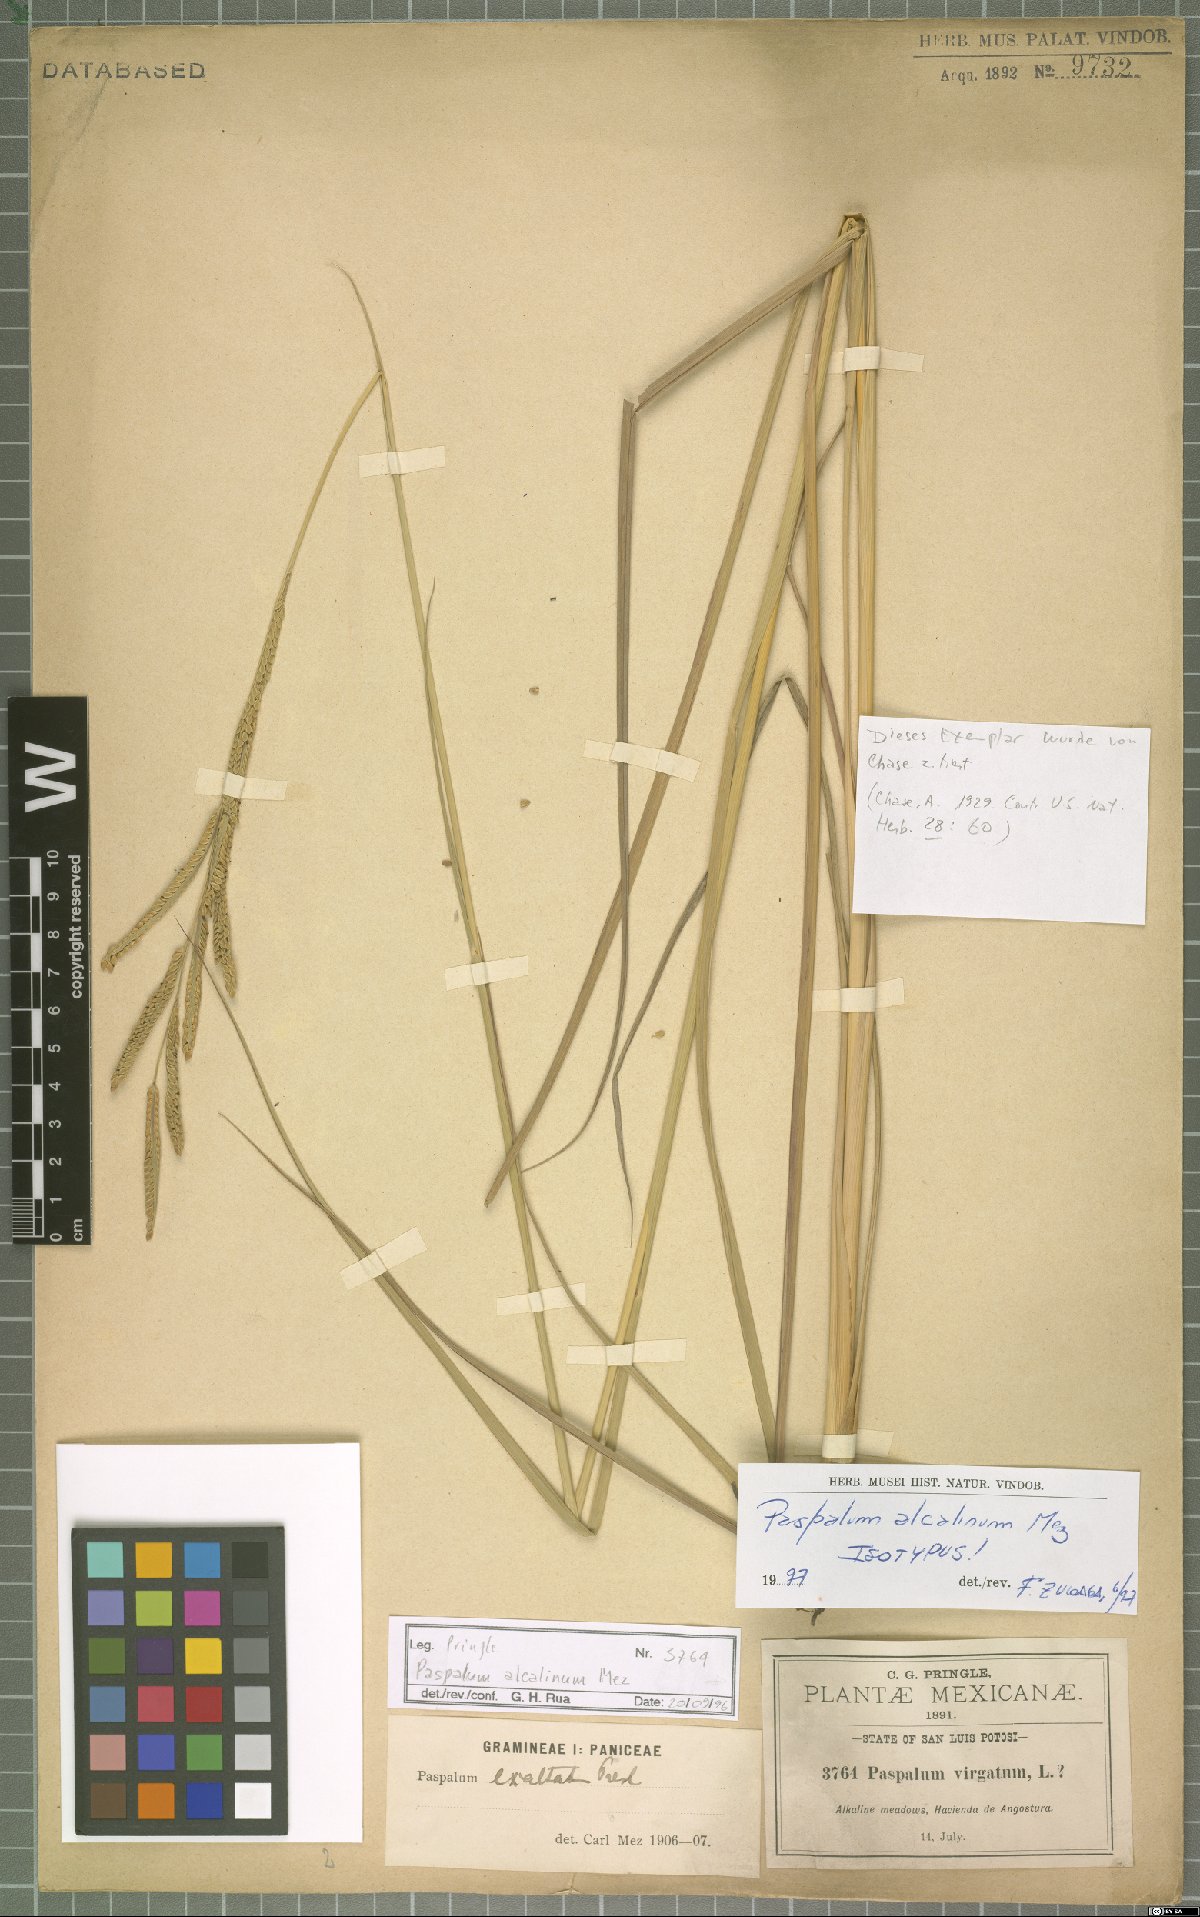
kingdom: Plantae
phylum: Tracheophyta
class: Liliopsida
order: Poales
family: Poaceae
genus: Paspalum
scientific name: Paspalum alcalinum
